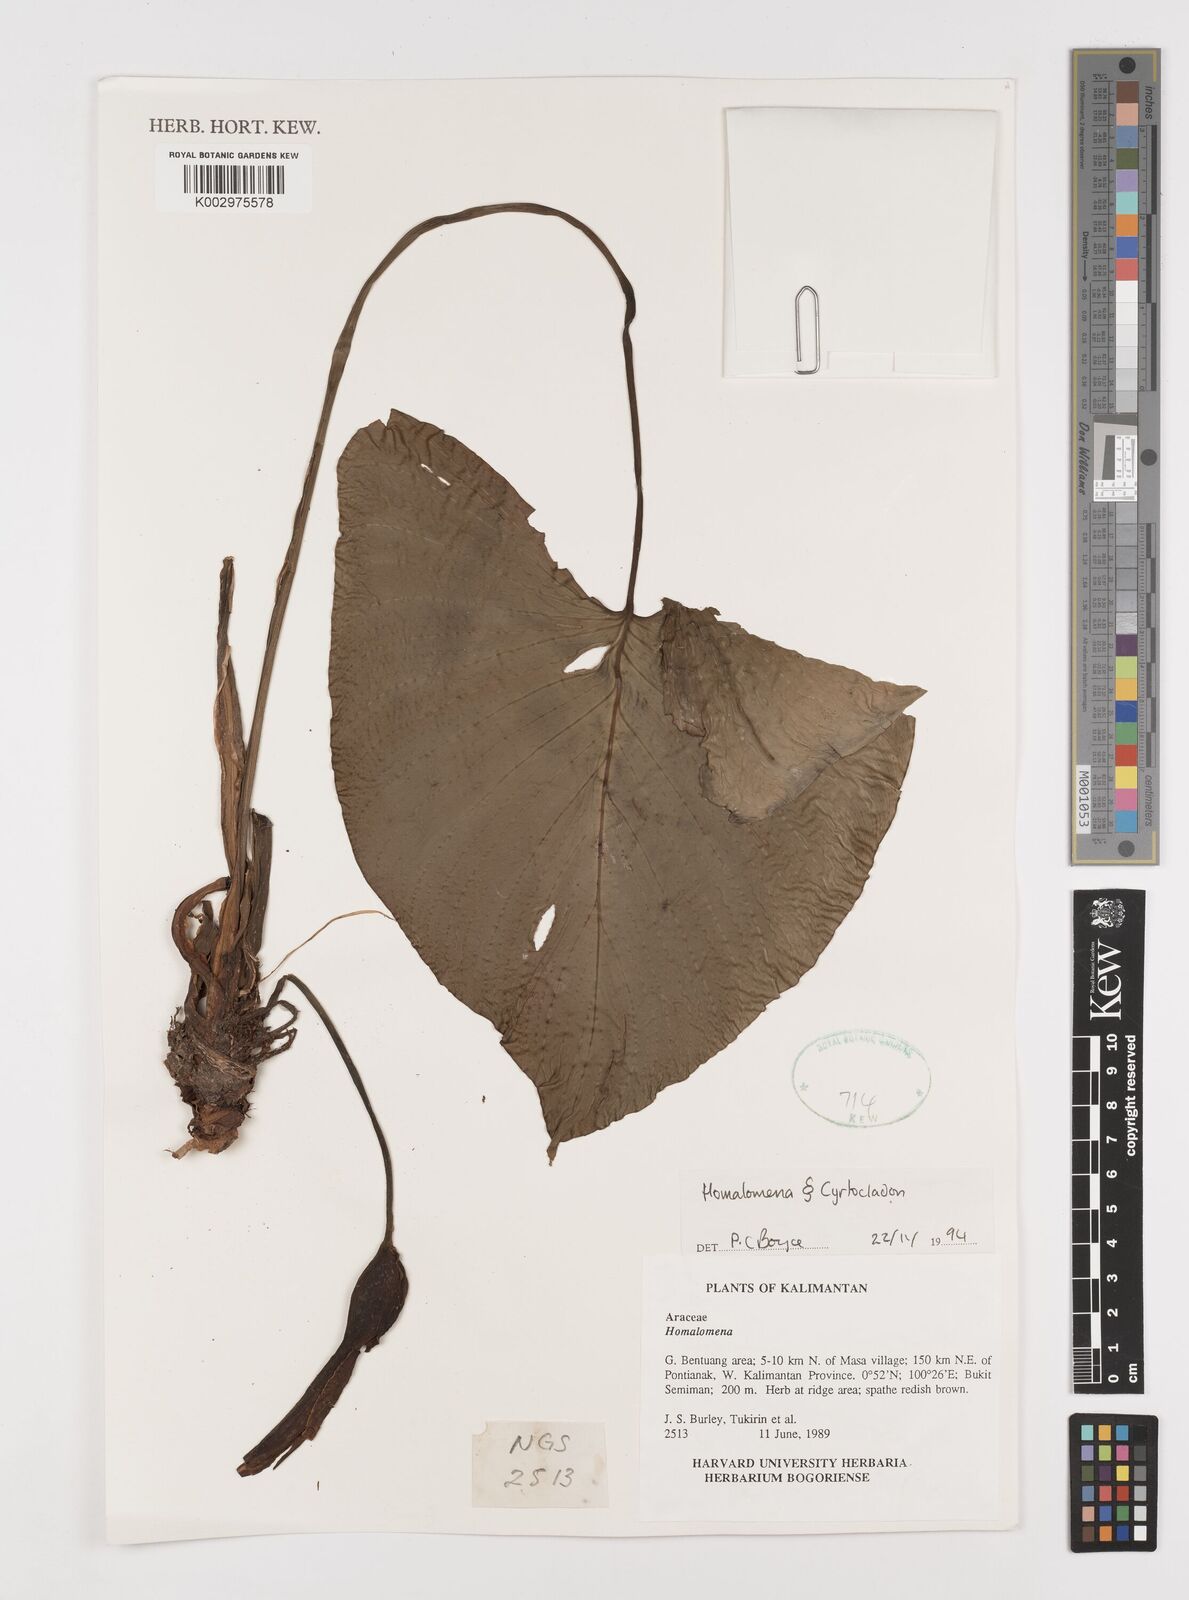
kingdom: Plantae
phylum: Tracheophyta
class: Liliopsida
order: Alismatales
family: Araceae
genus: Homalomena
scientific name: Homalomena
